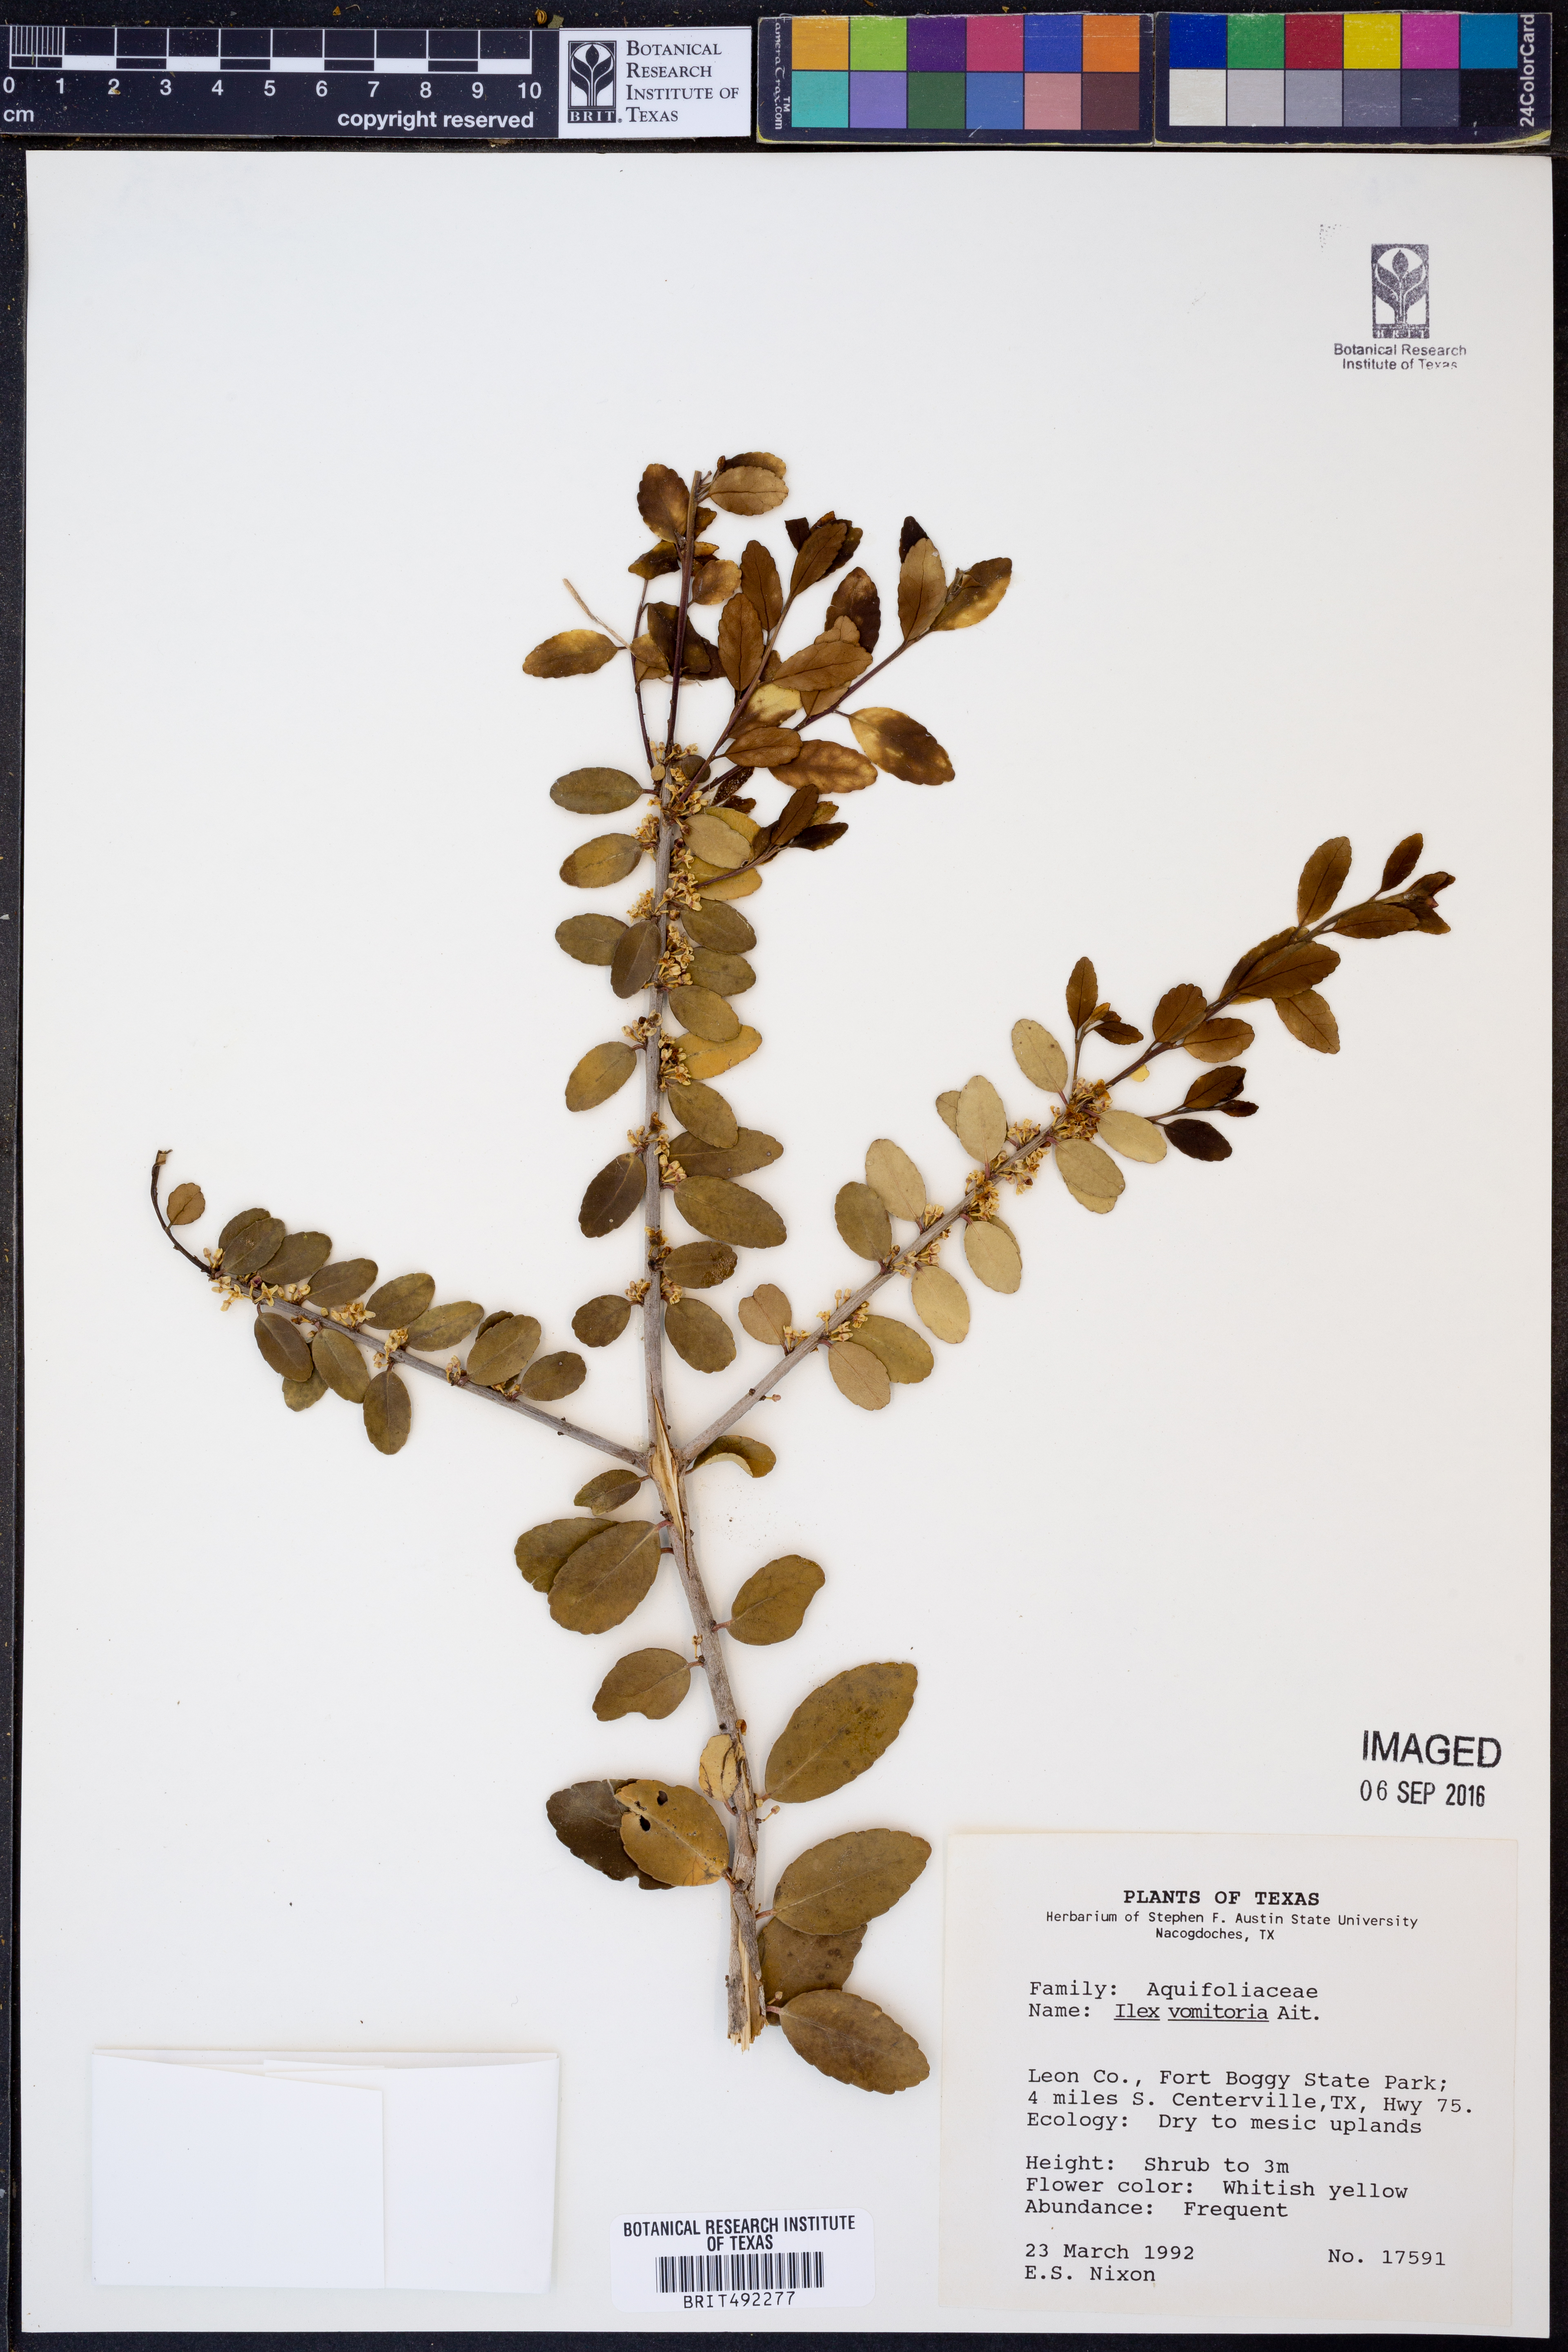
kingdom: Plantae
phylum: Tracheophyta
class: Magnoliopsida
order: Aquifoliales
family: Aquifoliaceae
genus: Ilex
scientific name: Ilex vomitoria
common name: Yaupon holly
